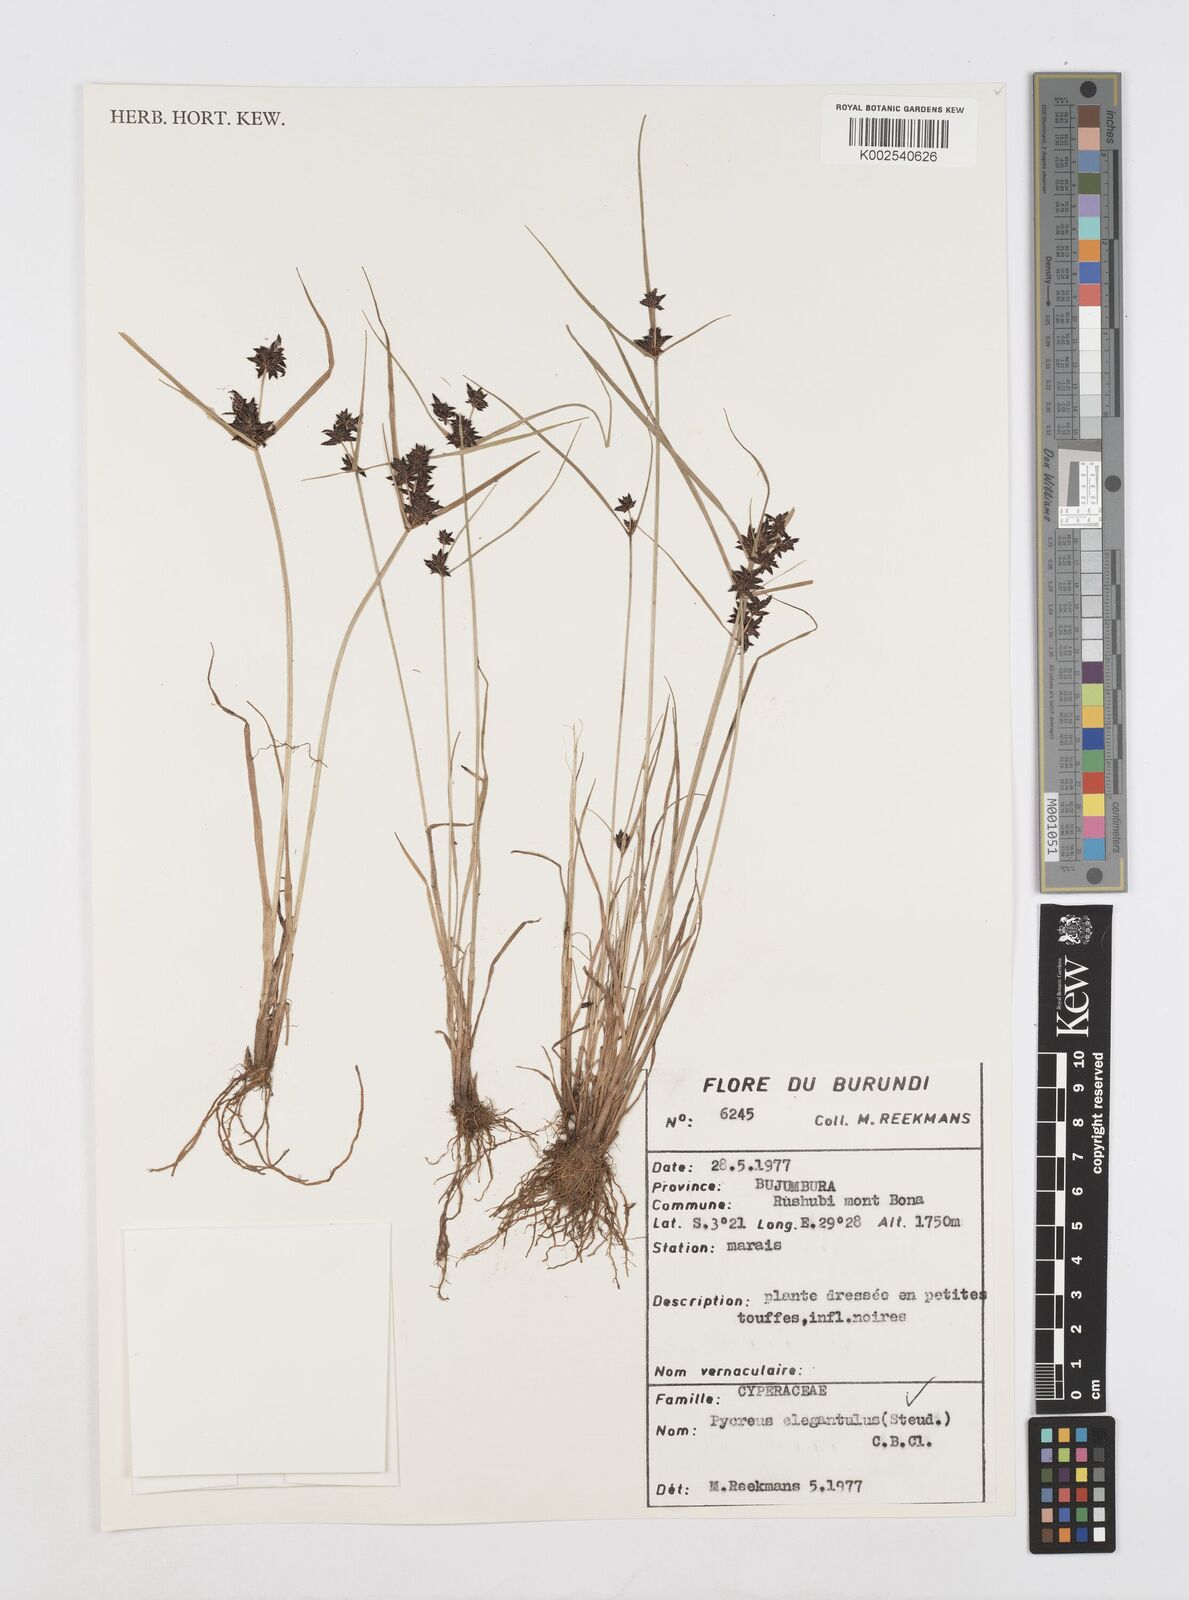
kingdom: Plantae
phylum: Tracheophyta
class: Liliopsida
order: Poales
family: Cyperaceae
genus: Cyperus
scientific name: Cyperus elegantulus
